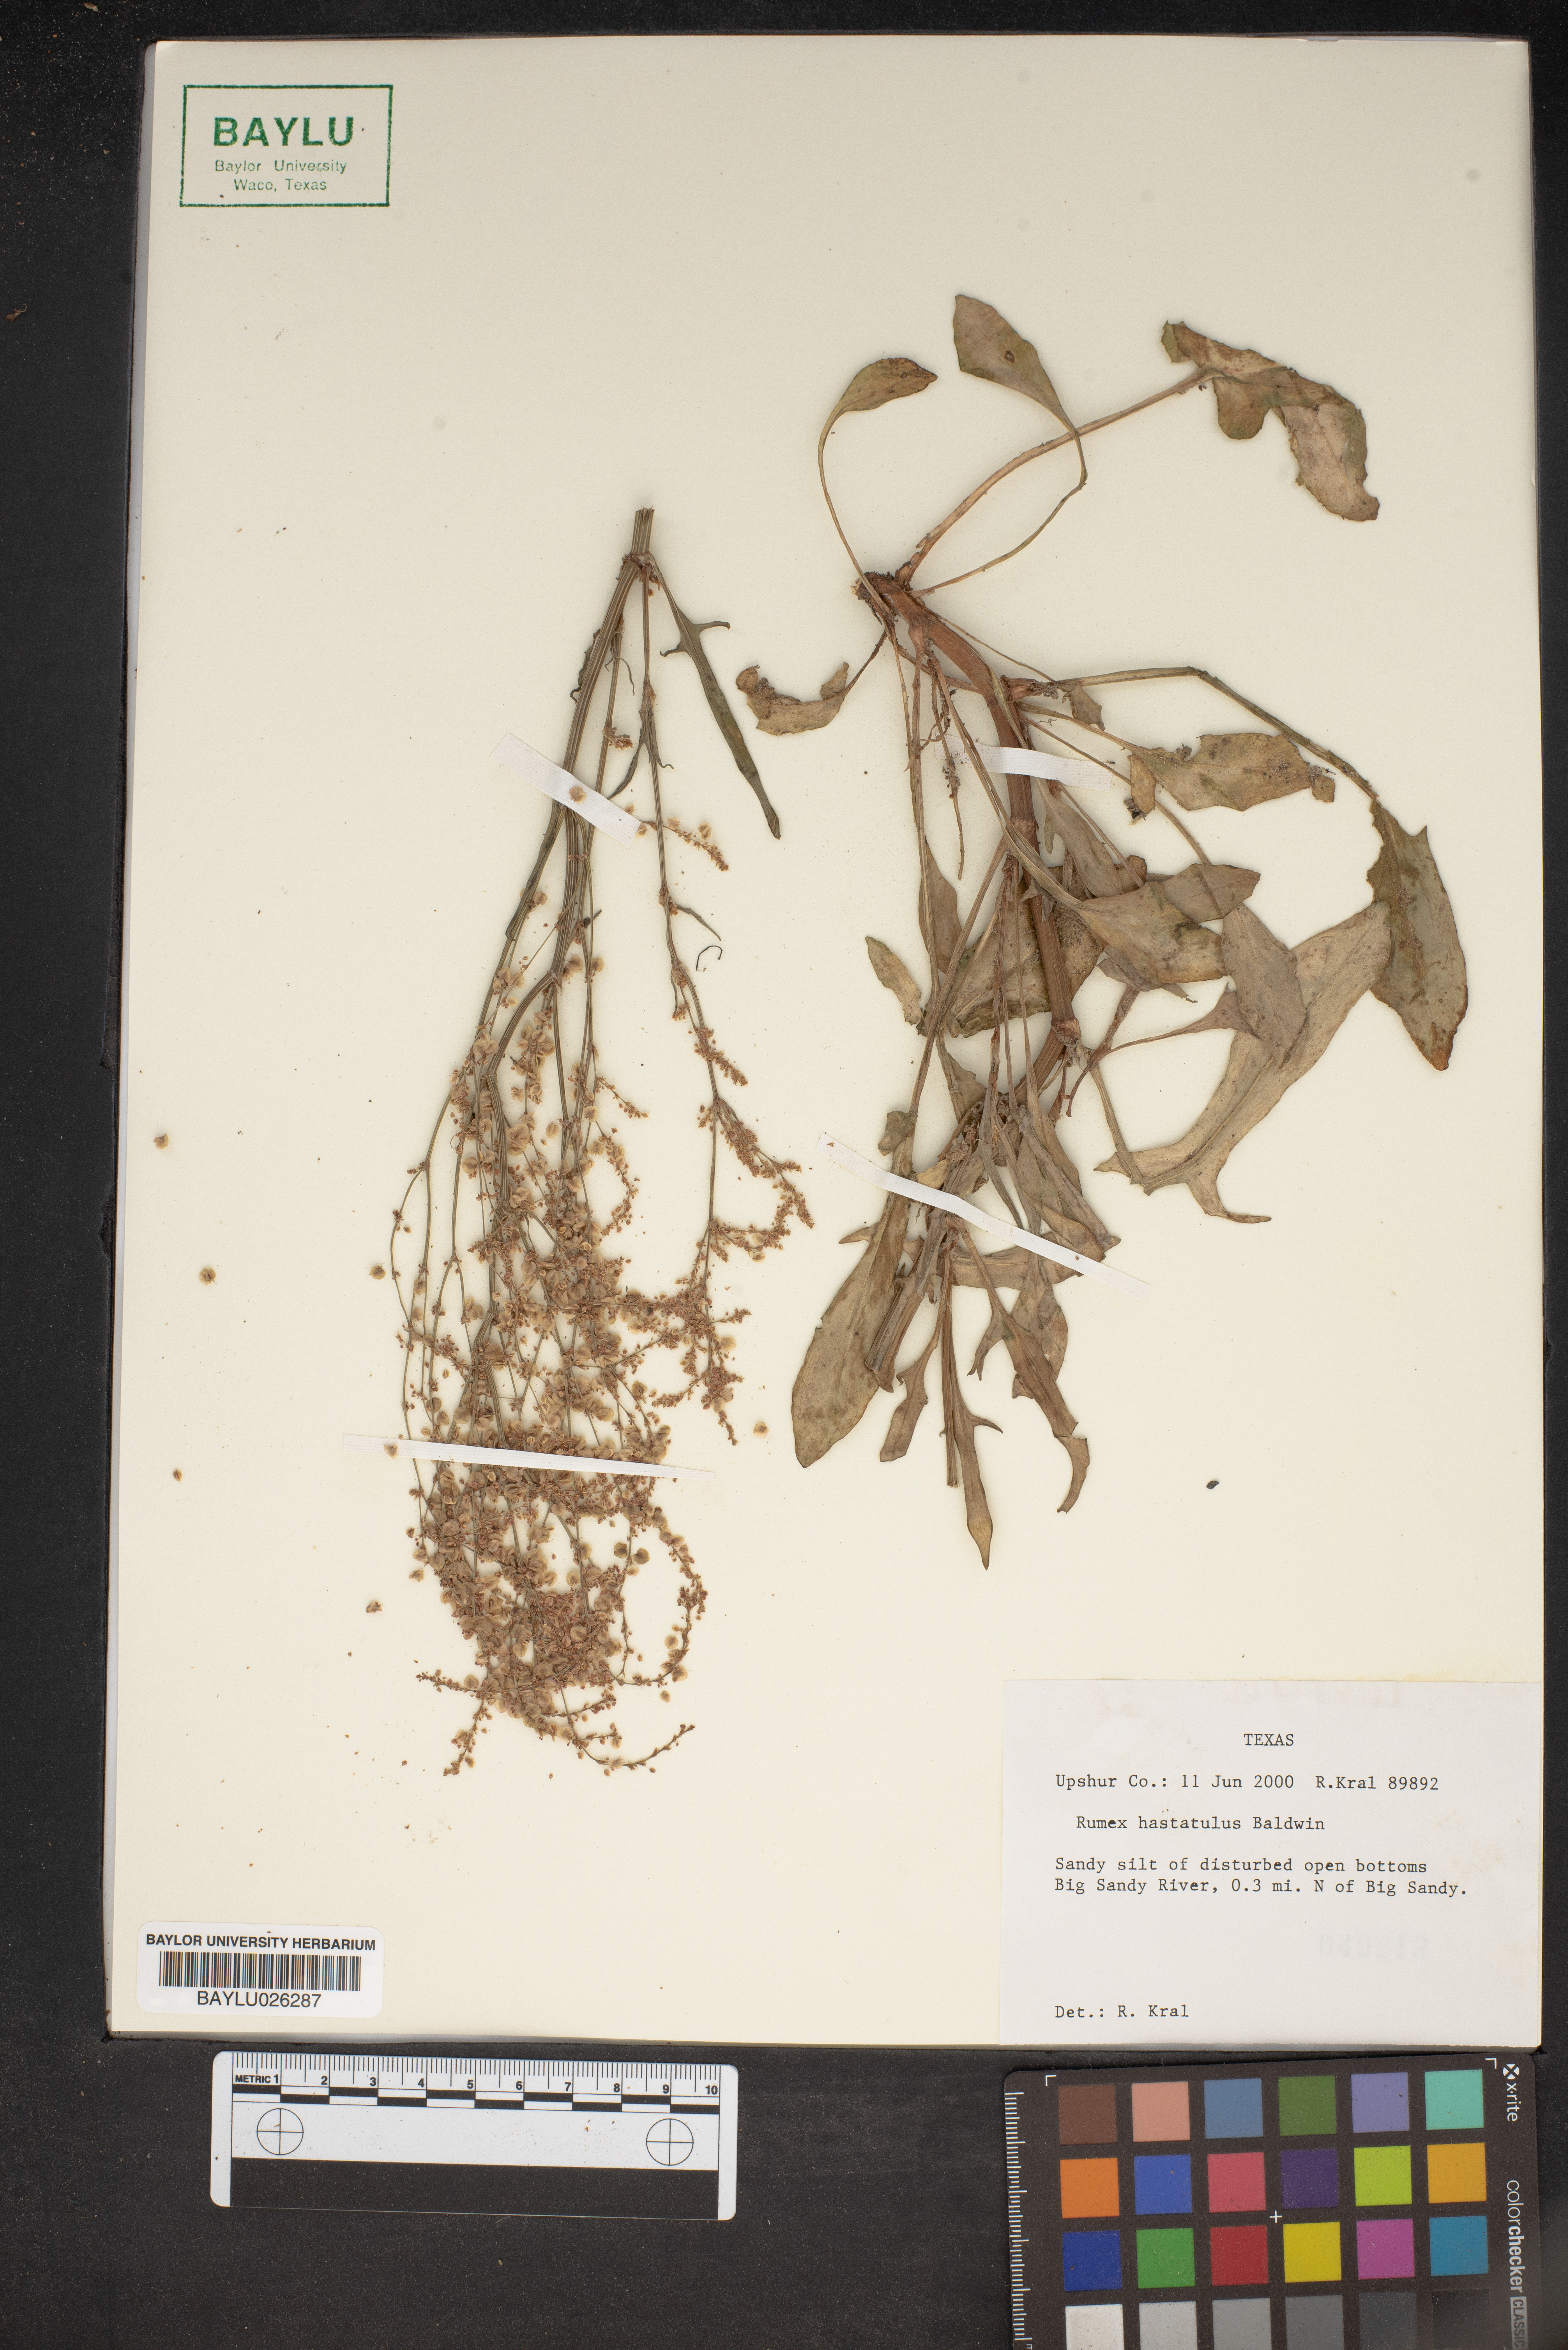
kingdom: Plantae
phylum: Tracheophyta
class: Magnoliopsida
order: Caryophyllales
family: Polygonaceae
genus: Rumex
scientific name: Rumex hastatulus
